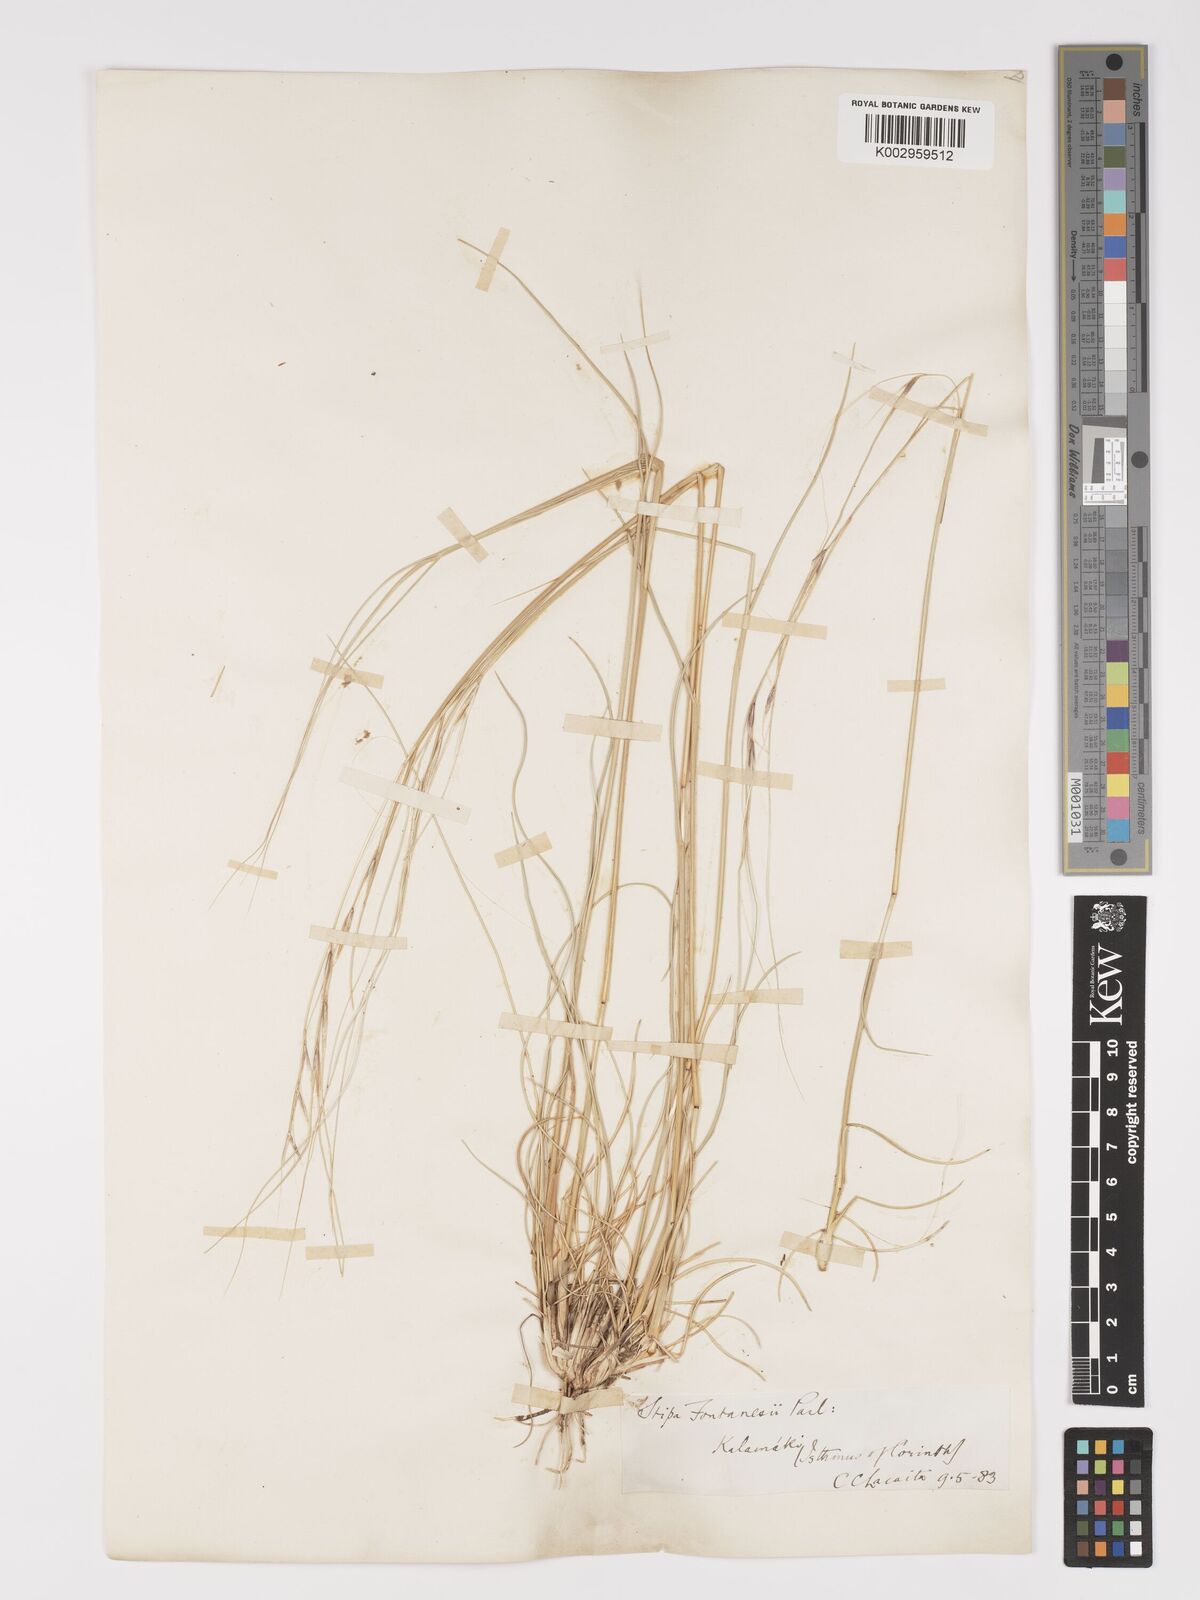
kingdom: Plantae
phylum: Tracheophyta
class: Liliopsida
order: Poales
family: Poaceae
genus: Stipa
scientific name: Stipa holosericea
